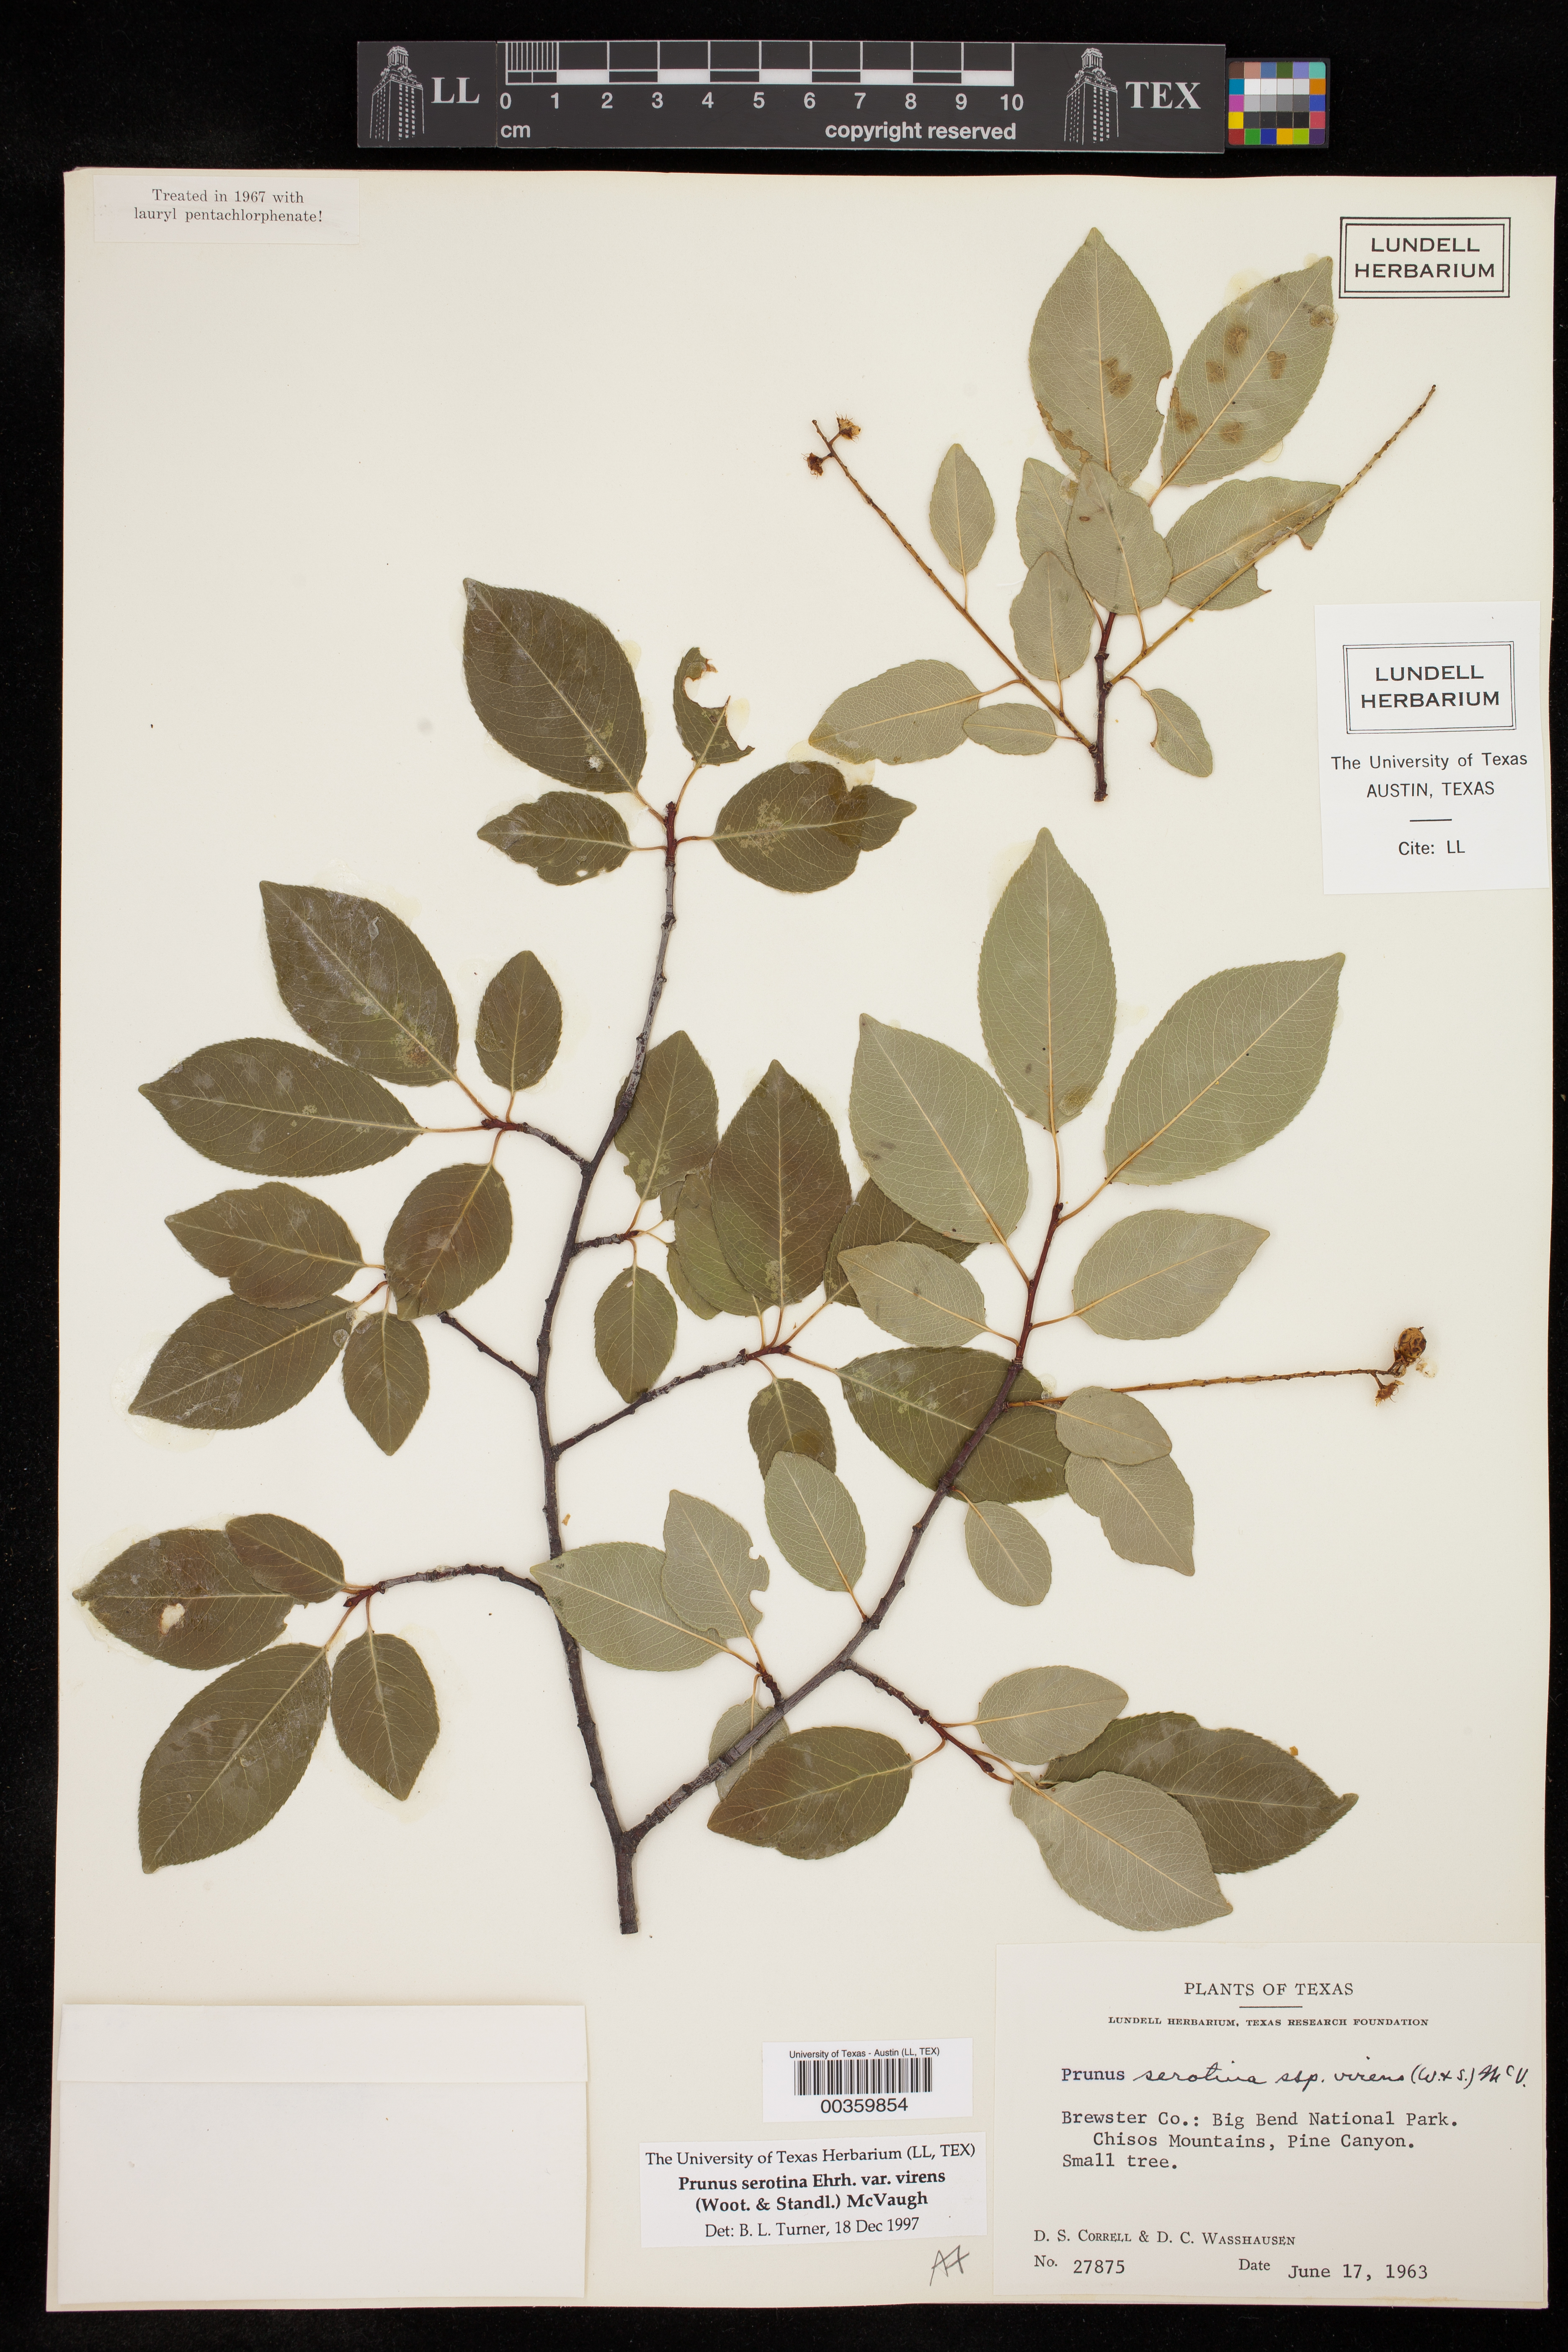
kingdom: Plantae
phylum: Tracheophyta
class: Magnoliopsida
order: Rosales
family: Rosaceae
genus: Prunus
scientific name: Prunus serotina
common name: Black cherry
